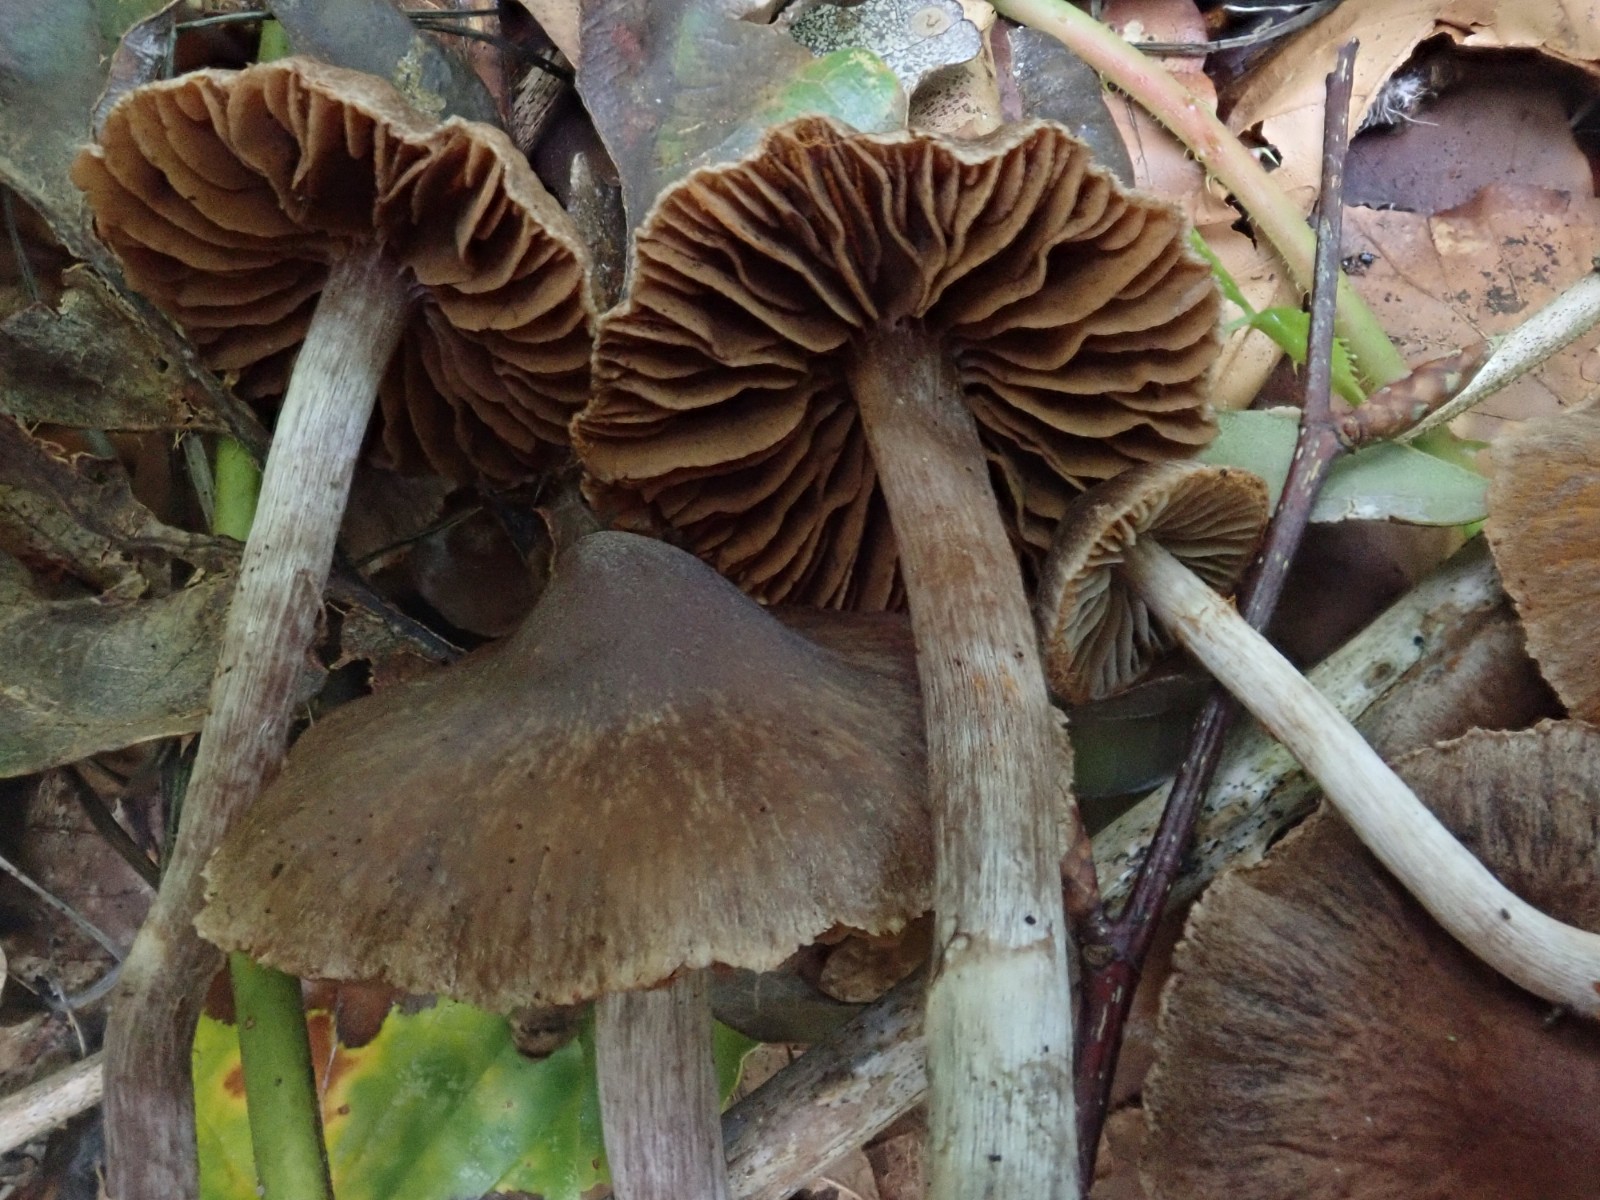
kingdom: Fungi
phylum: Basidiomycota
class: Agaricomycetes
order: Agaricales
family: Cortinariaceae
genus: Cortinarius
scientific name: Cortinarius
